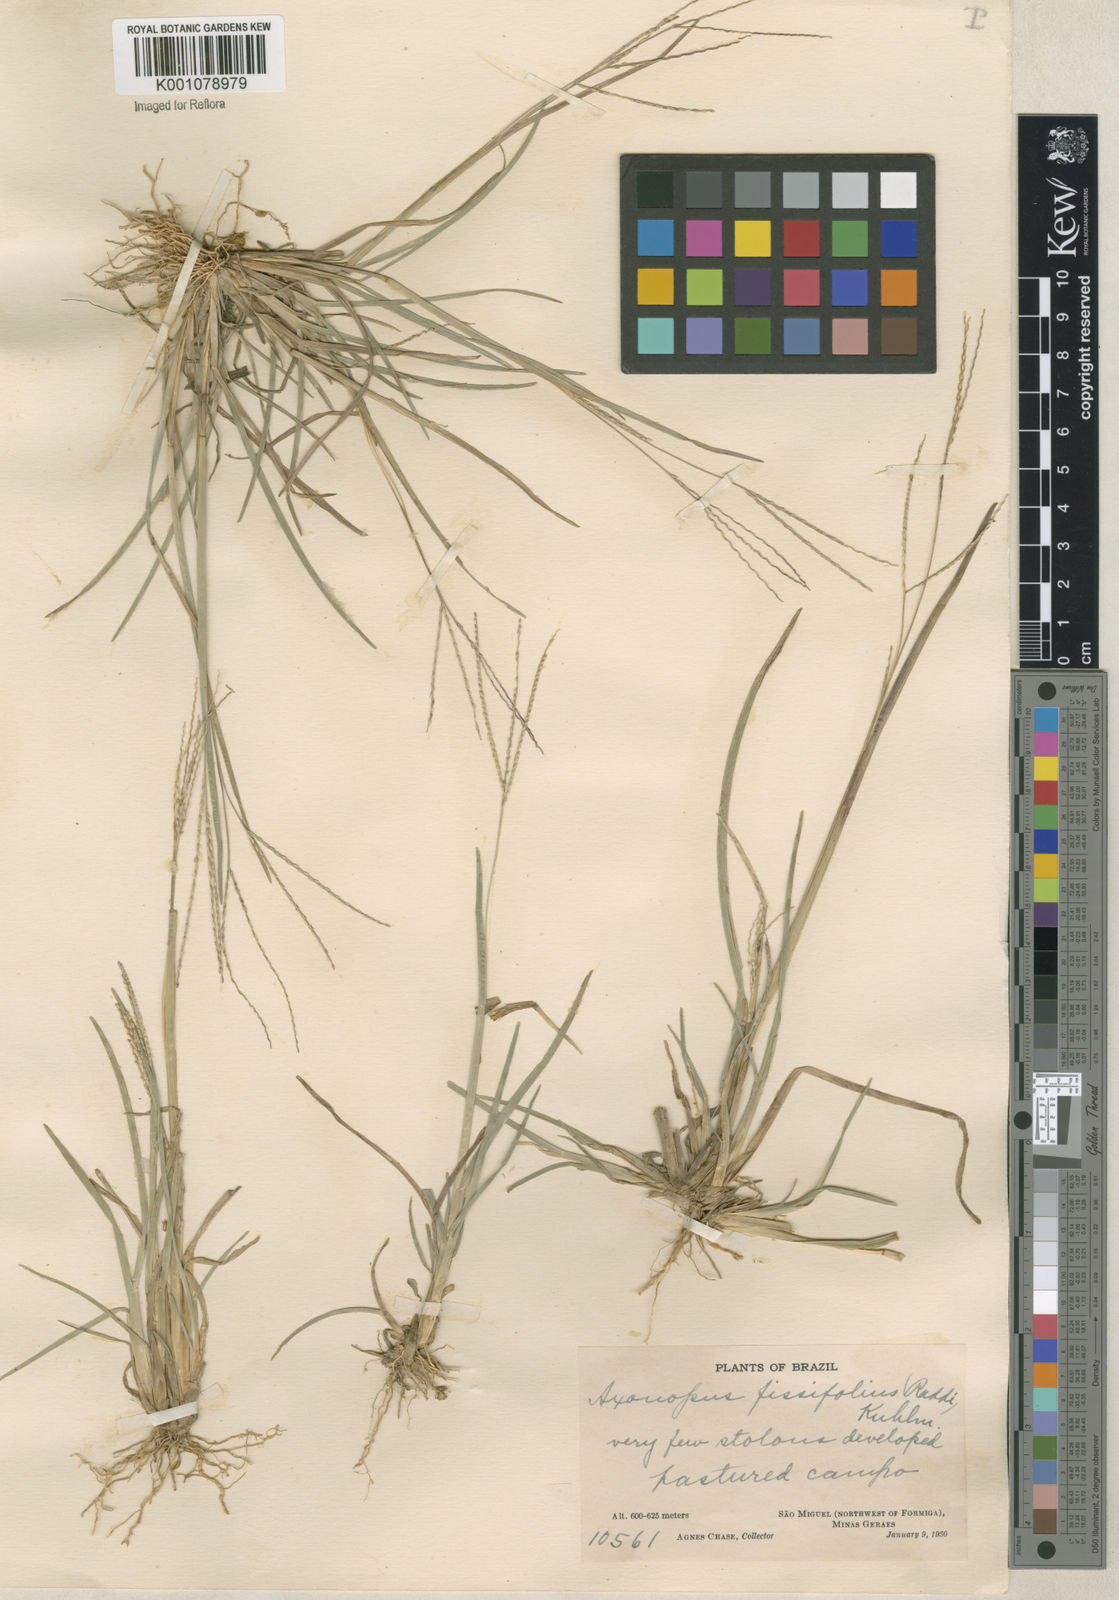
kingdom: Plantae
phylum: Tracheophyta
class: Liliopsida
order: Poales
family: Poaceae
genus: Axonopus
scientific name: Axonopus fissifolius
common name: Common carpetgrass
